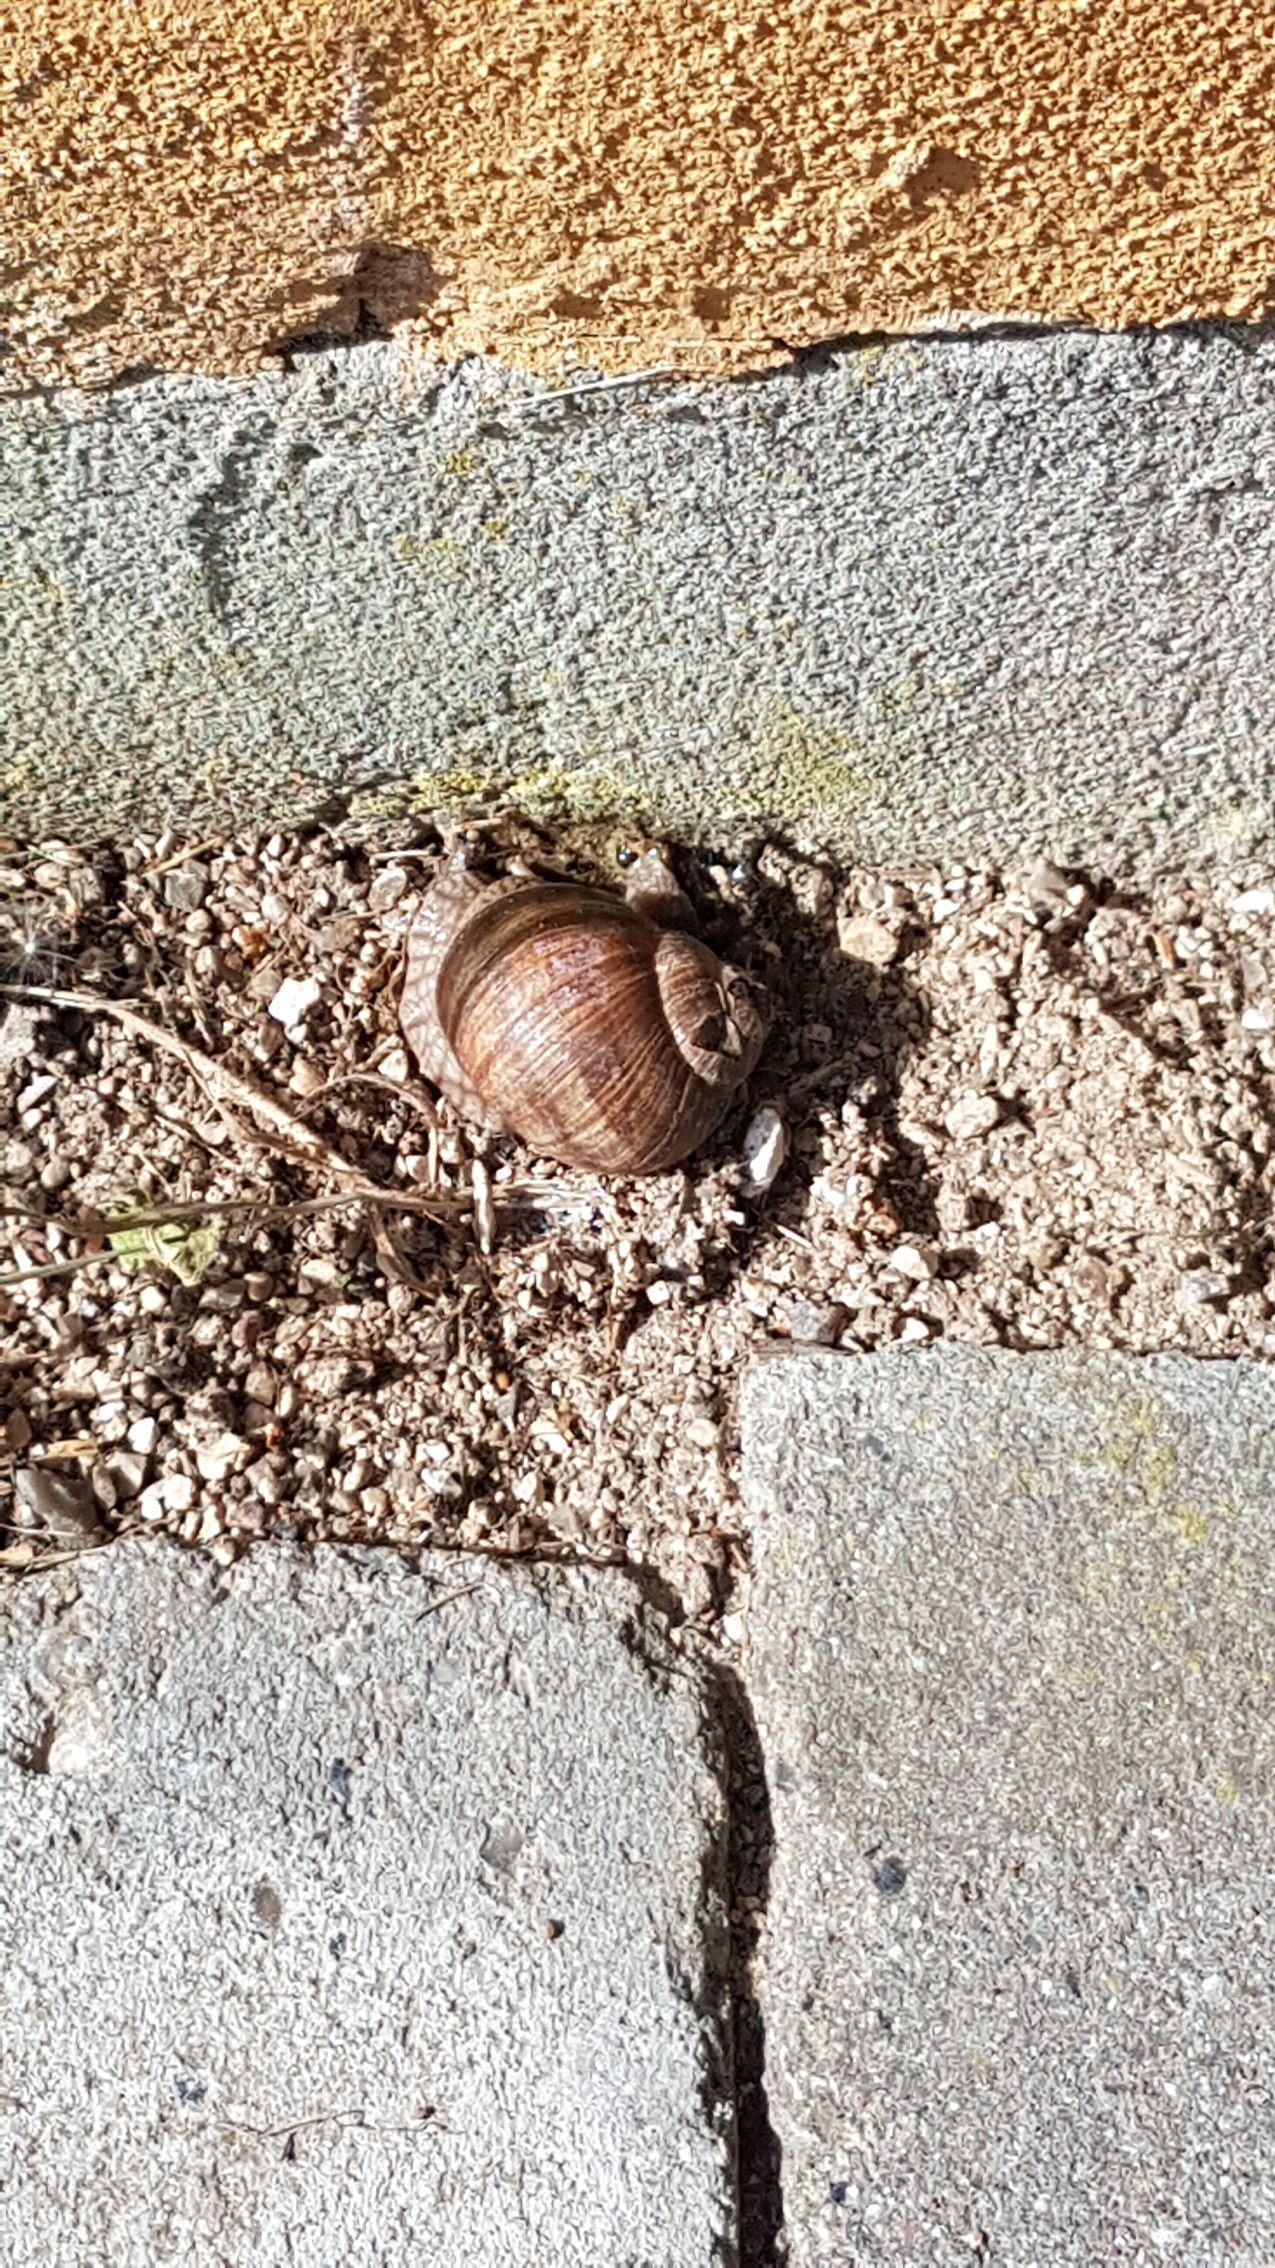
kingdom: Animalia
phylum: Mollusca
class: Gastropoda
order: Stylommatophora
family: Helicidae
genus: Helix
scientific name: Helix pomatia
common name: Vinbjergsnegl
